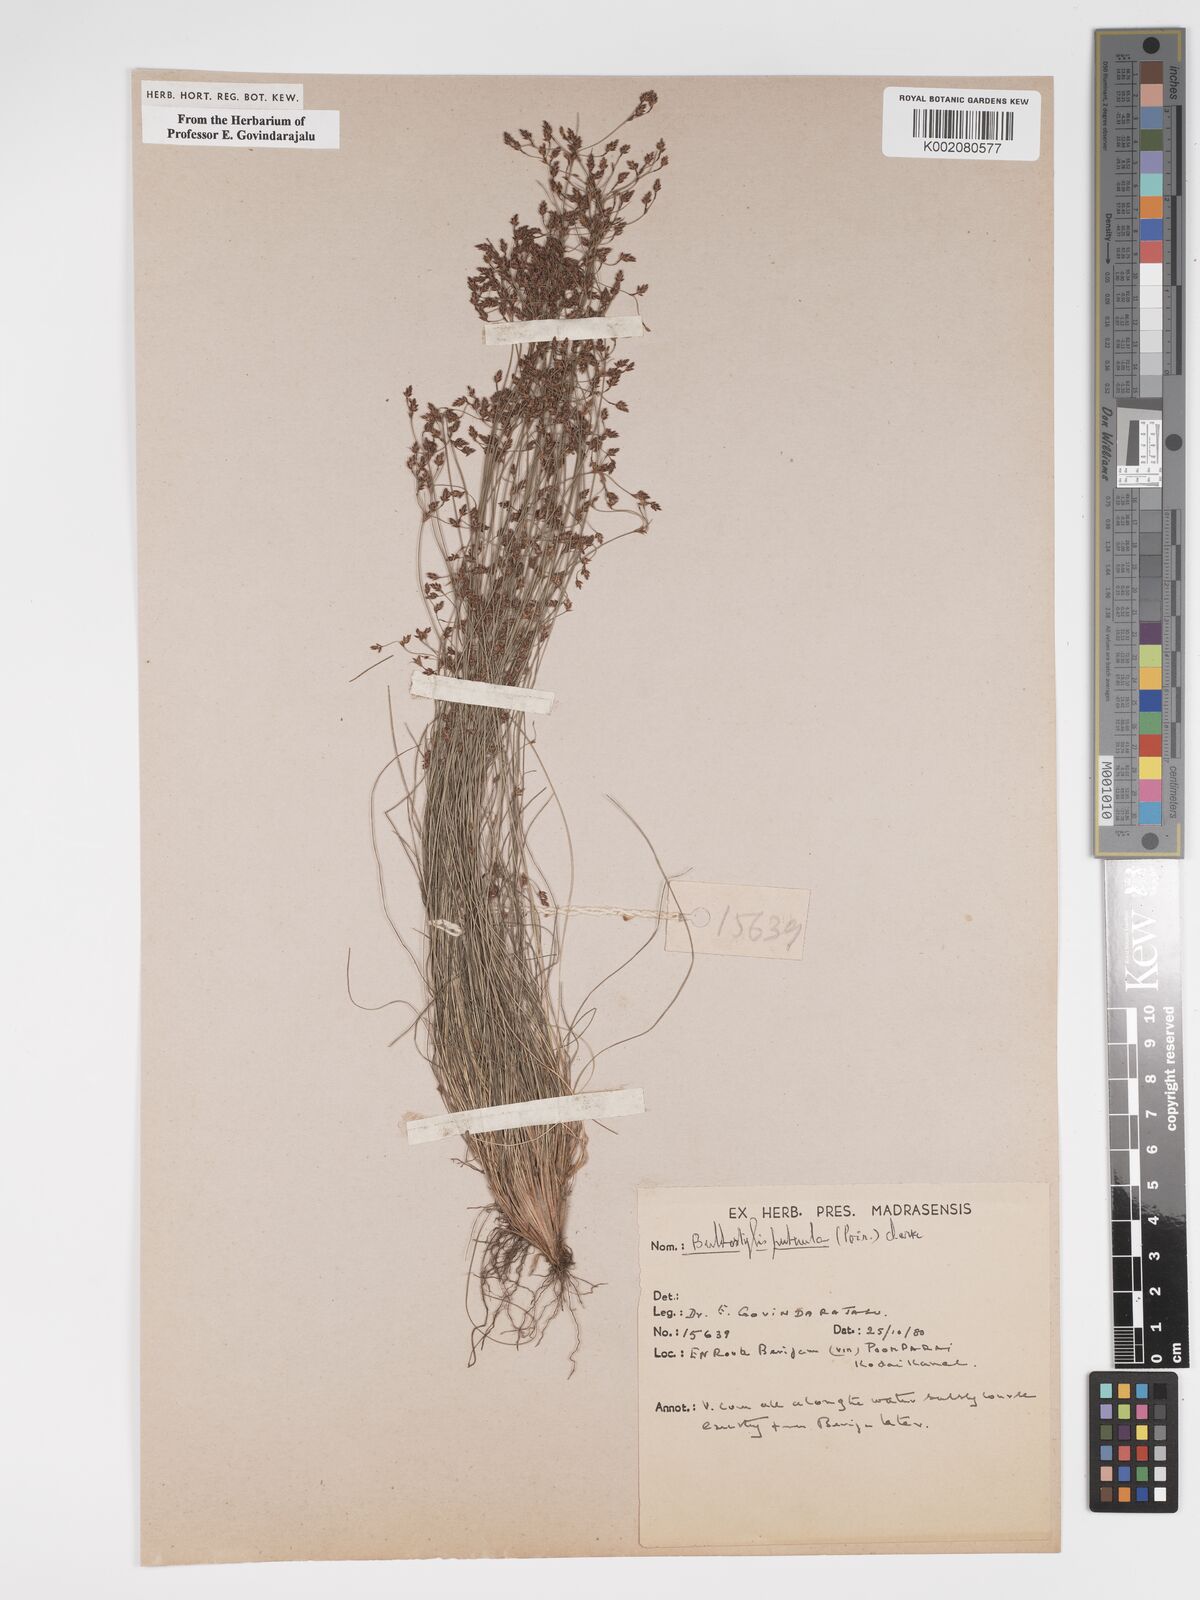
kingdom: Plantae
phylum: Tracheophyta
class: Liliopsida
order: Poales
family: Cyperaceae
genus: Bulbostylis
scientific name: Bulbostylis thouarsii
